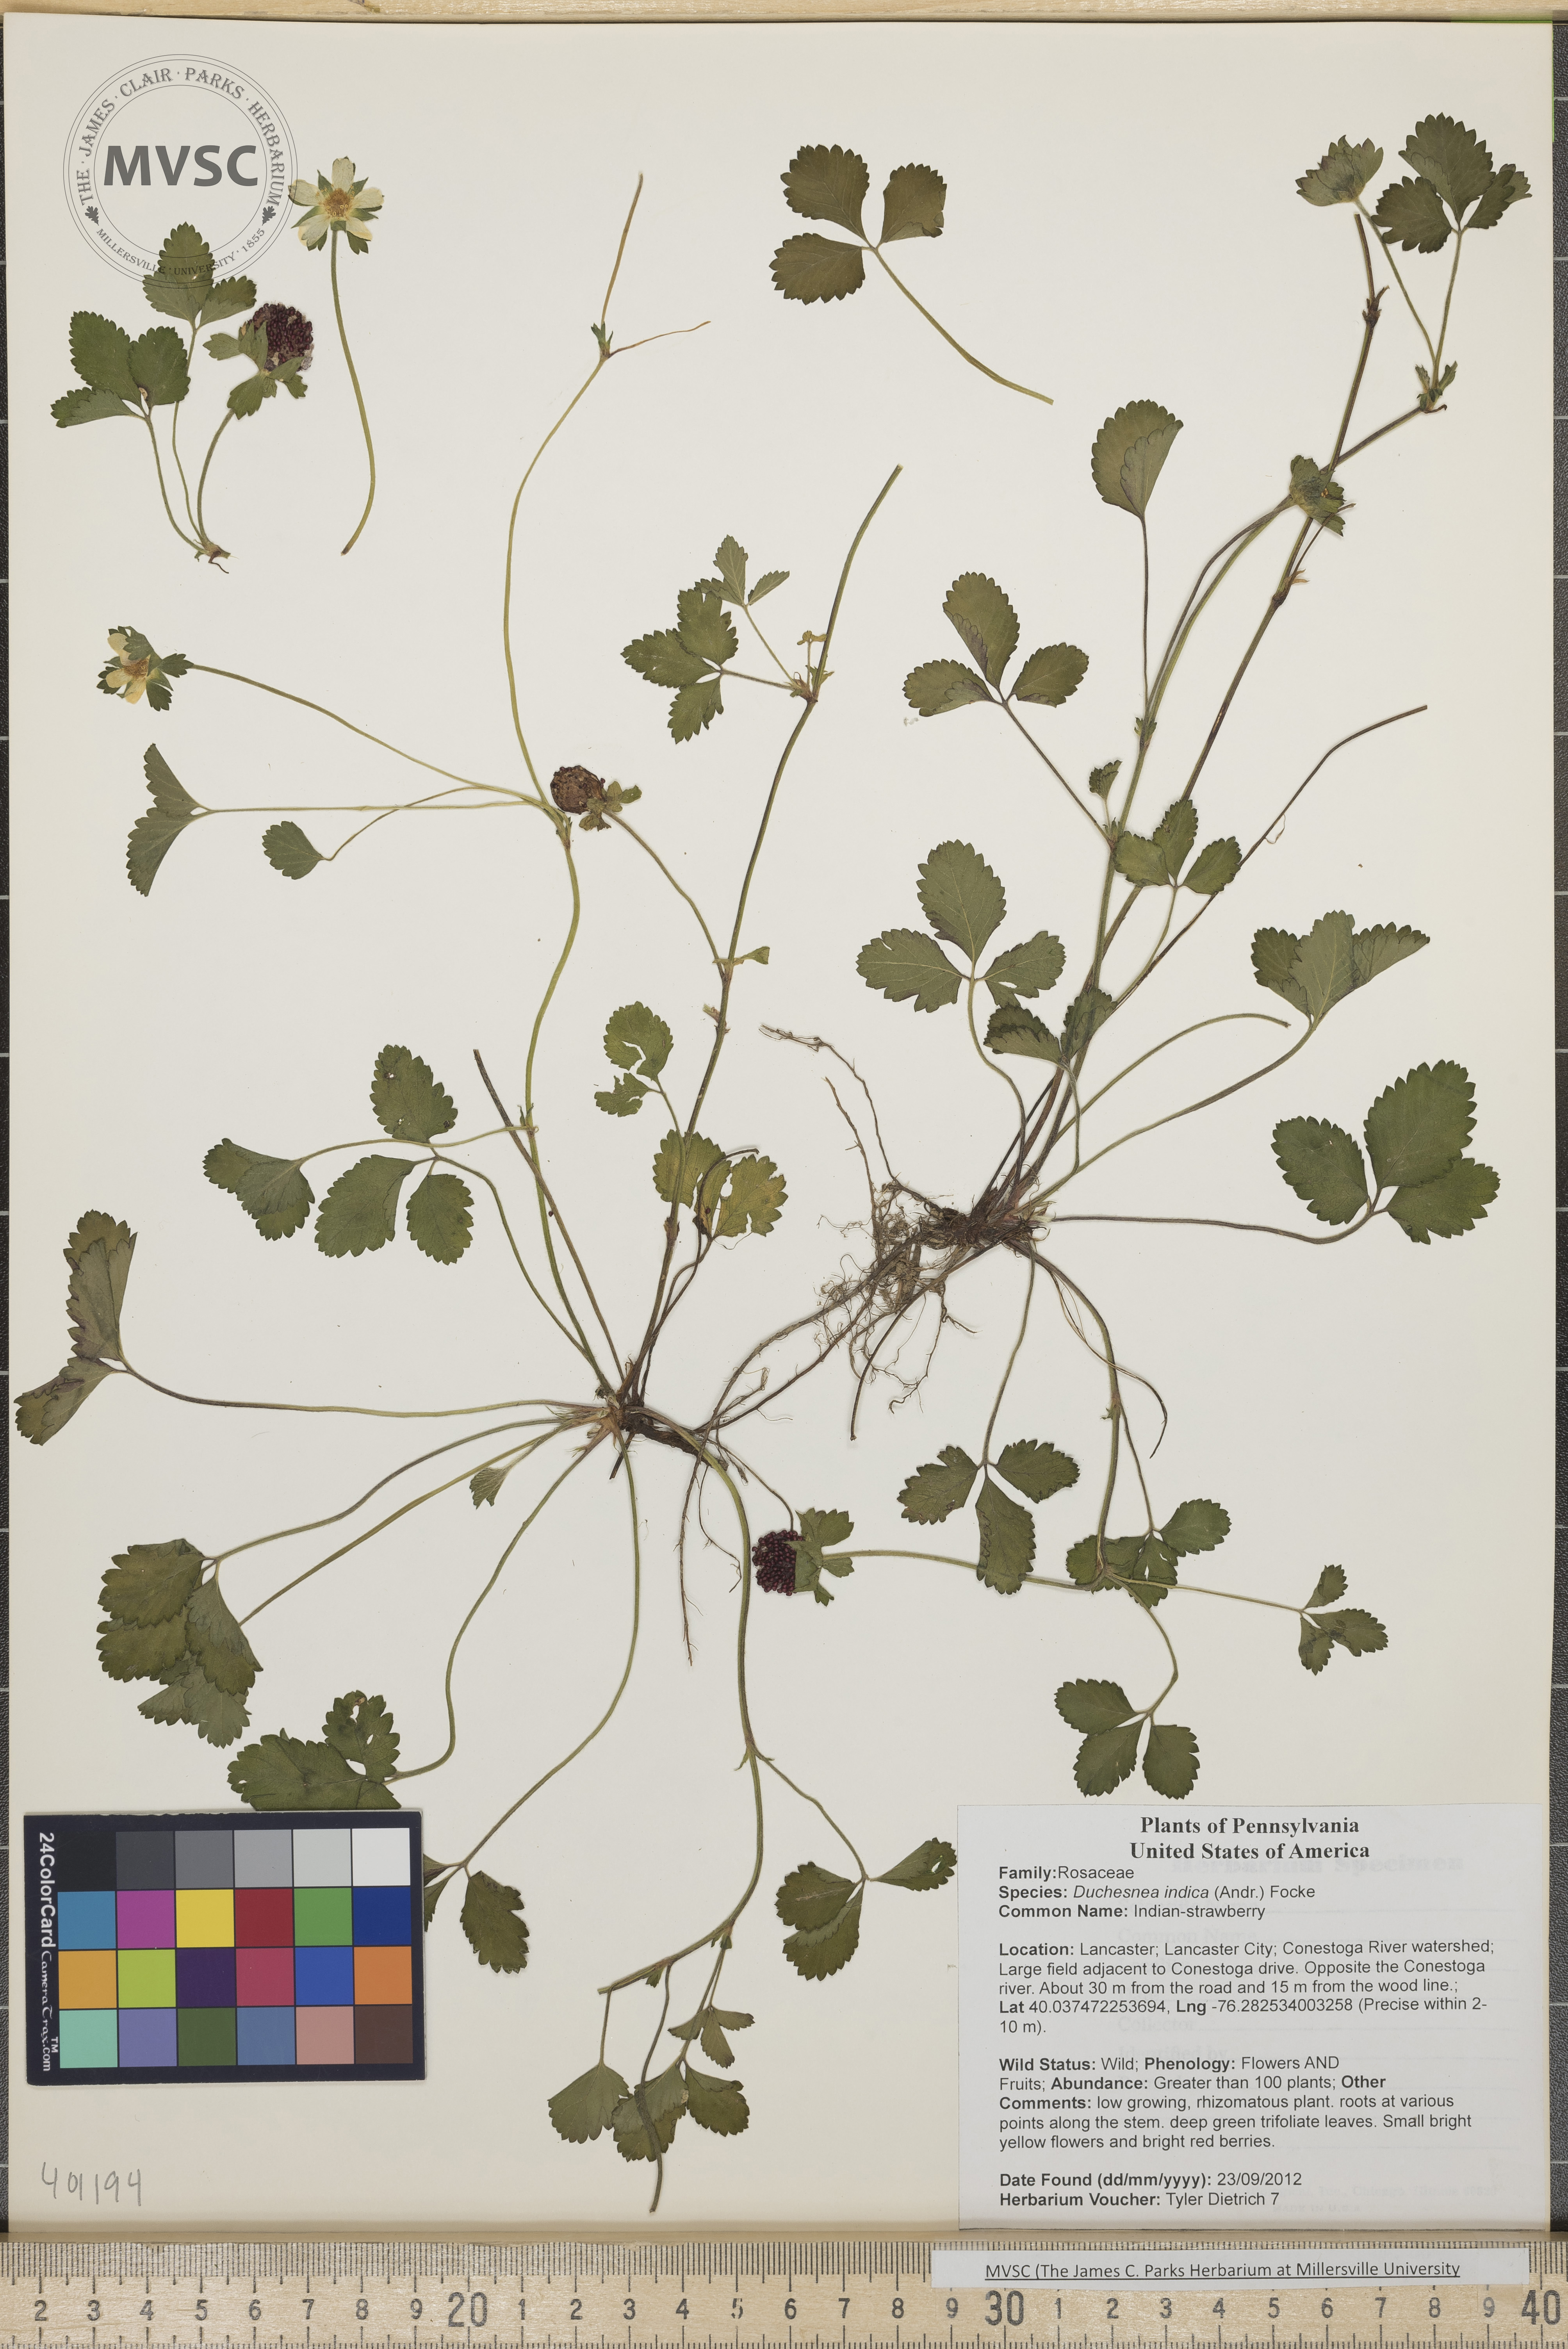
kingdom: Plantae
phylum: Tracheophyta
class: Magnoliopsida
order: Rosales
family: Rosaceae
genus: Potentilla
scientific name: Potentilla indica
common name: Indian-strawberry
